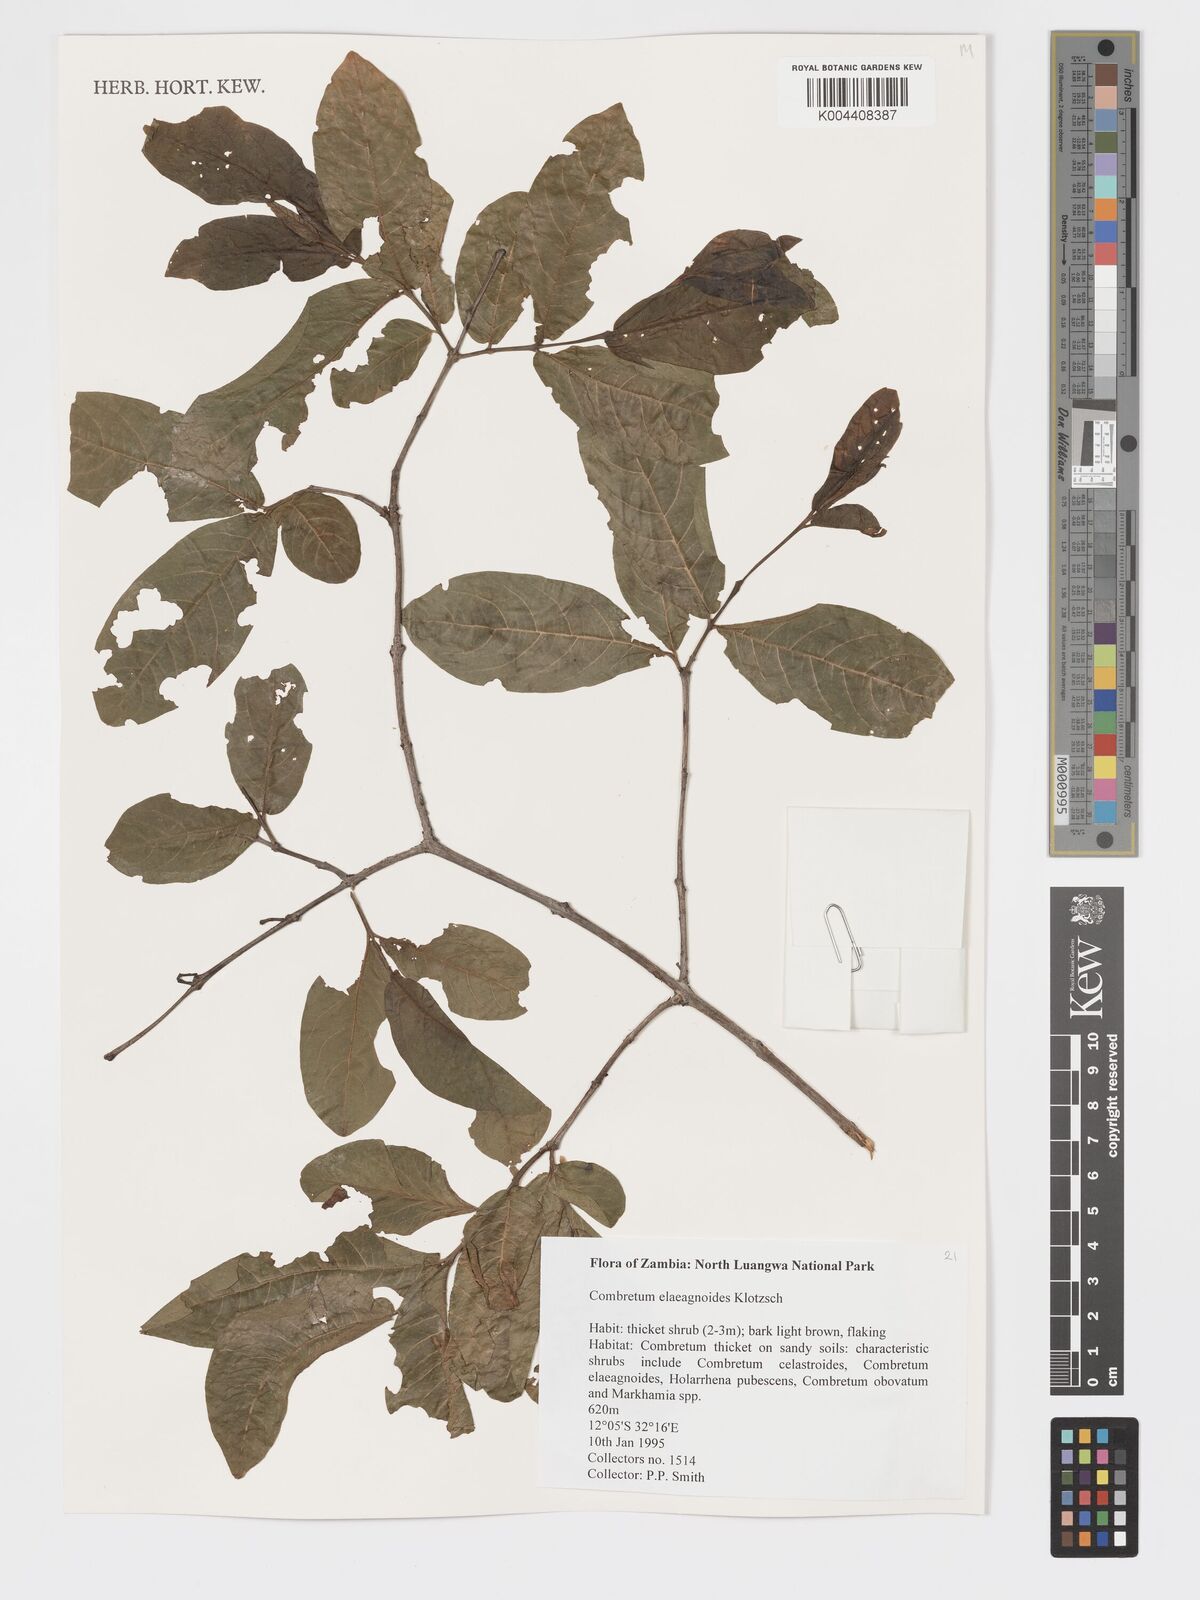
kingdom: Plantae
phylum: Tracheophyta
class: Magnoliopsida
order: Myrtales
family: Combretaceae
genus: Combretum
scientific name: Combretum elaeagnoides
